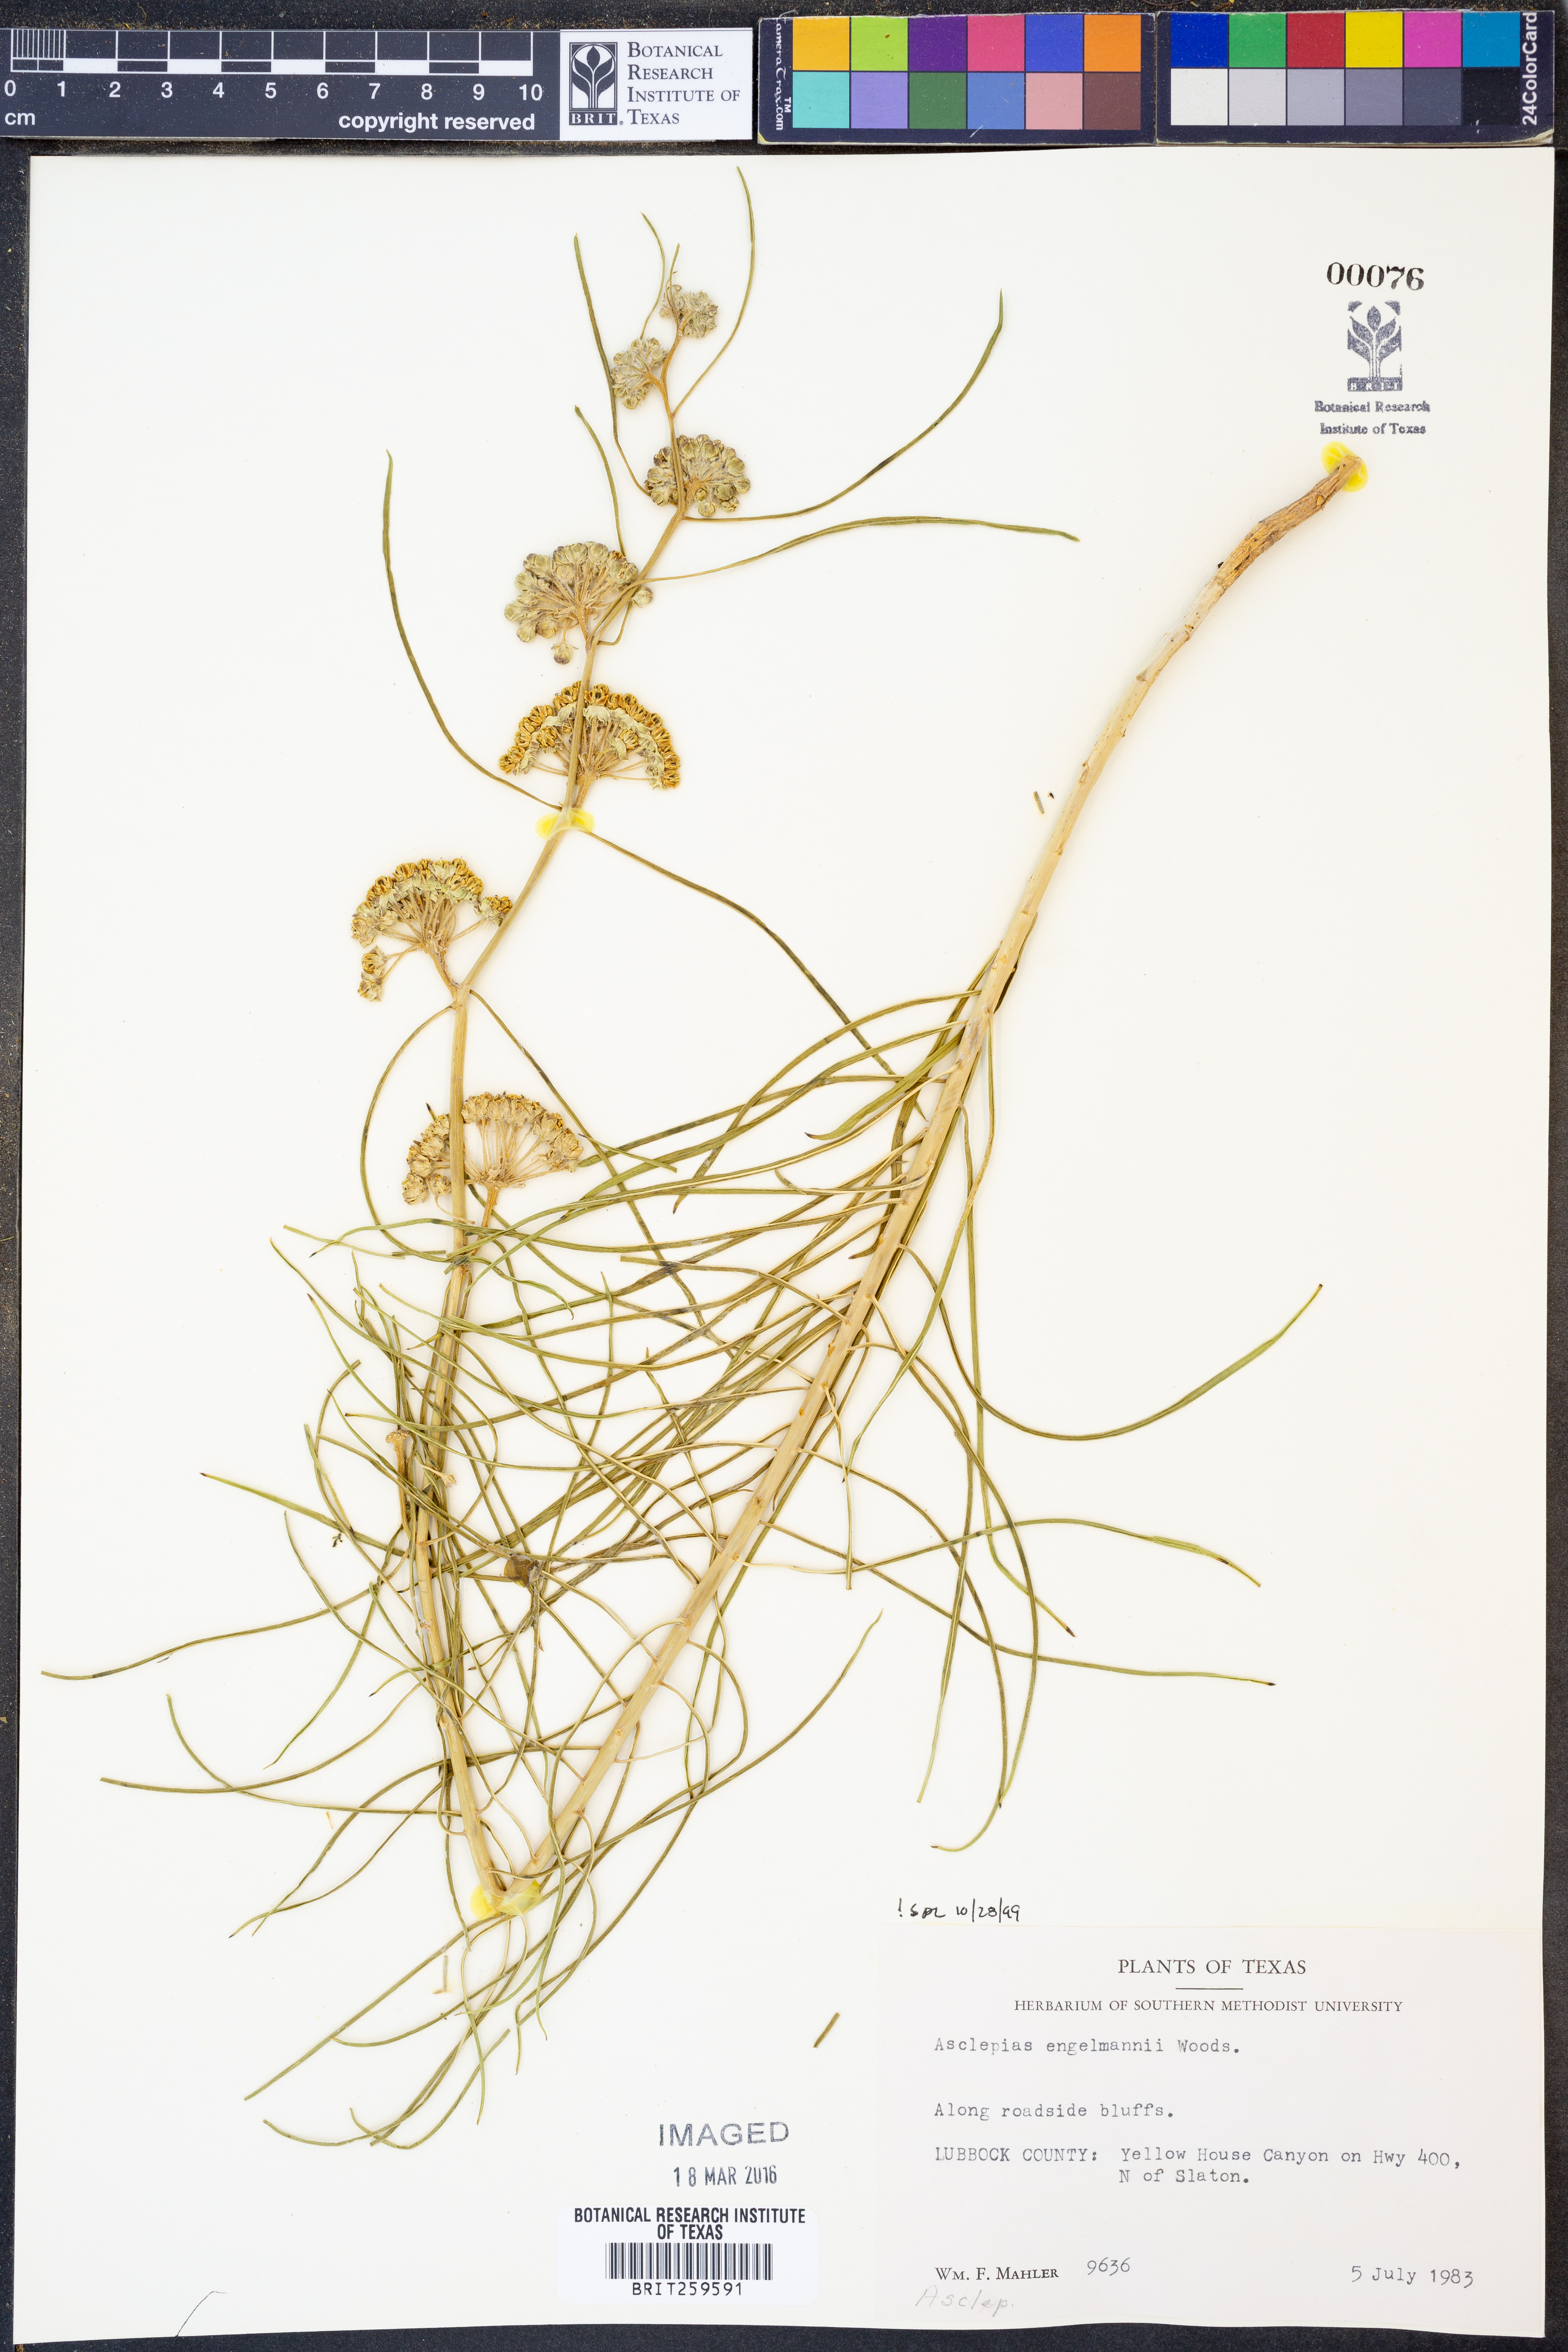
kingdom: Plantae
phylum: Tracheophyta
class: Magnoliopsida
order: Gentianales
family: Apocynaceae
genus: Asclepias
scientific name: Asclepias engelmanniana
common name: Engelmann's milkweed
